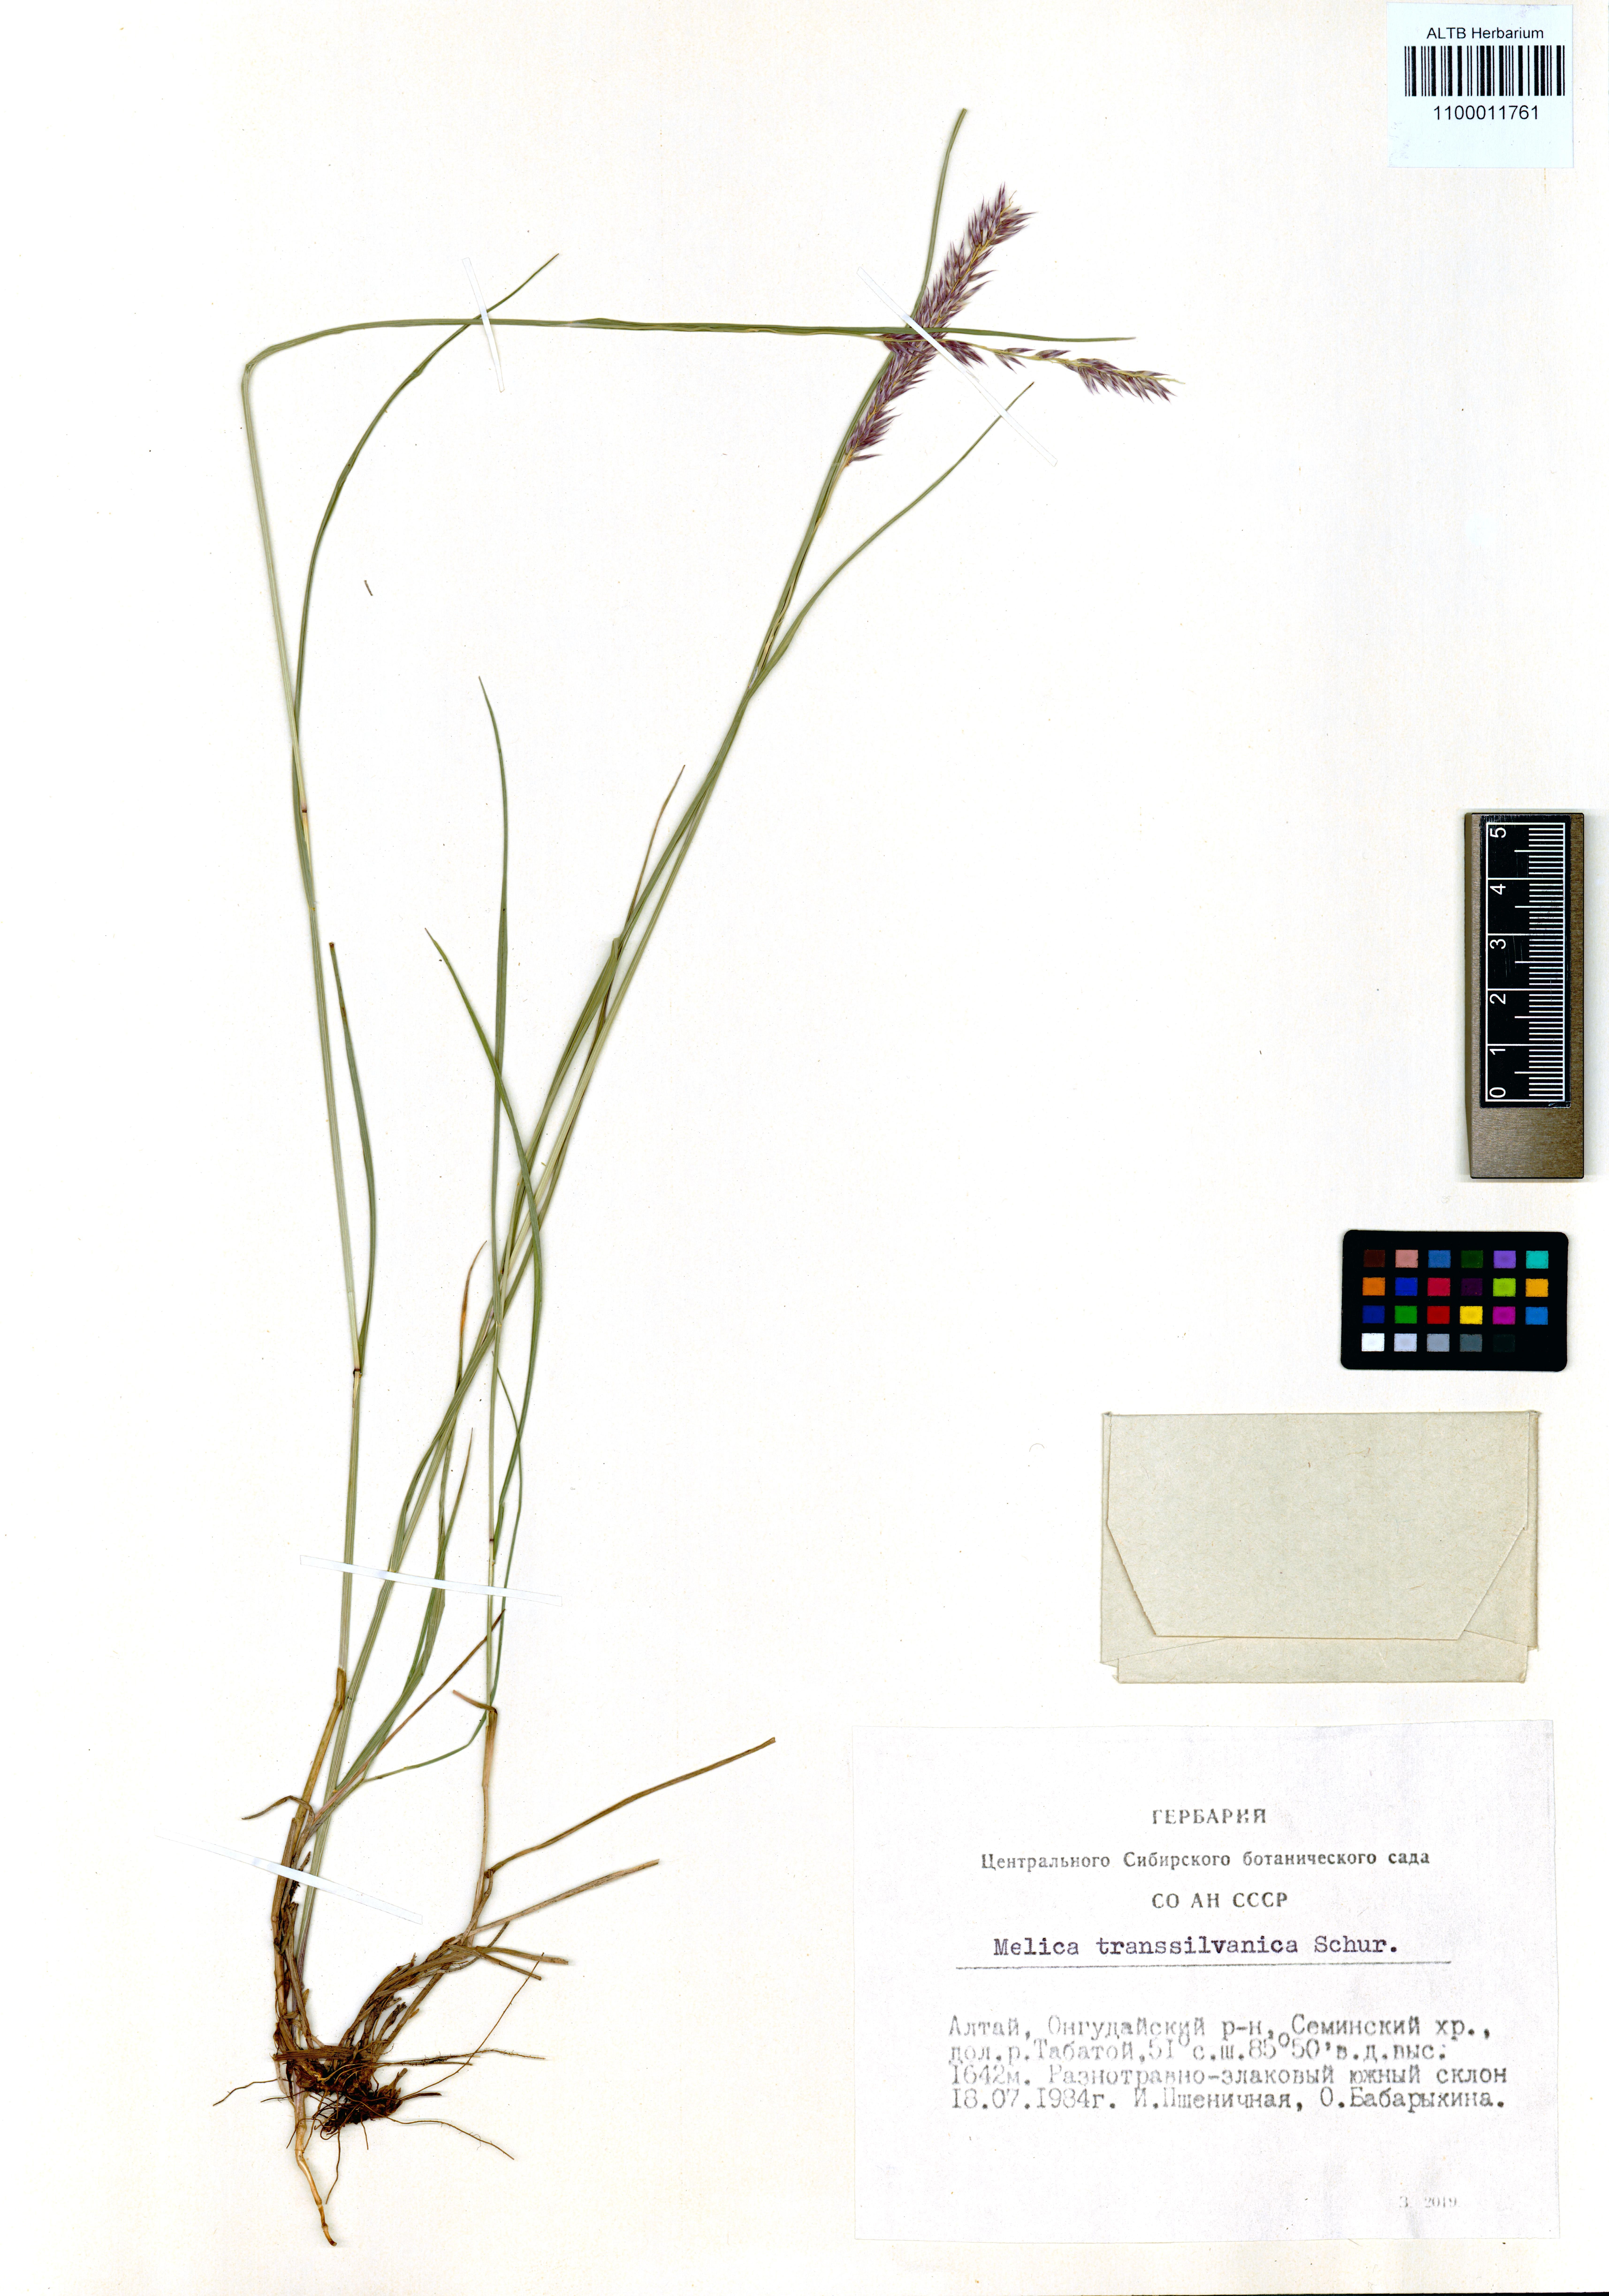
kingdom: Plantae
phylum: Tracheophyta
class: Liliopsida
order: Poales
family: Poaceae
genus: Melica
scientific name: Melica transsilvanica
